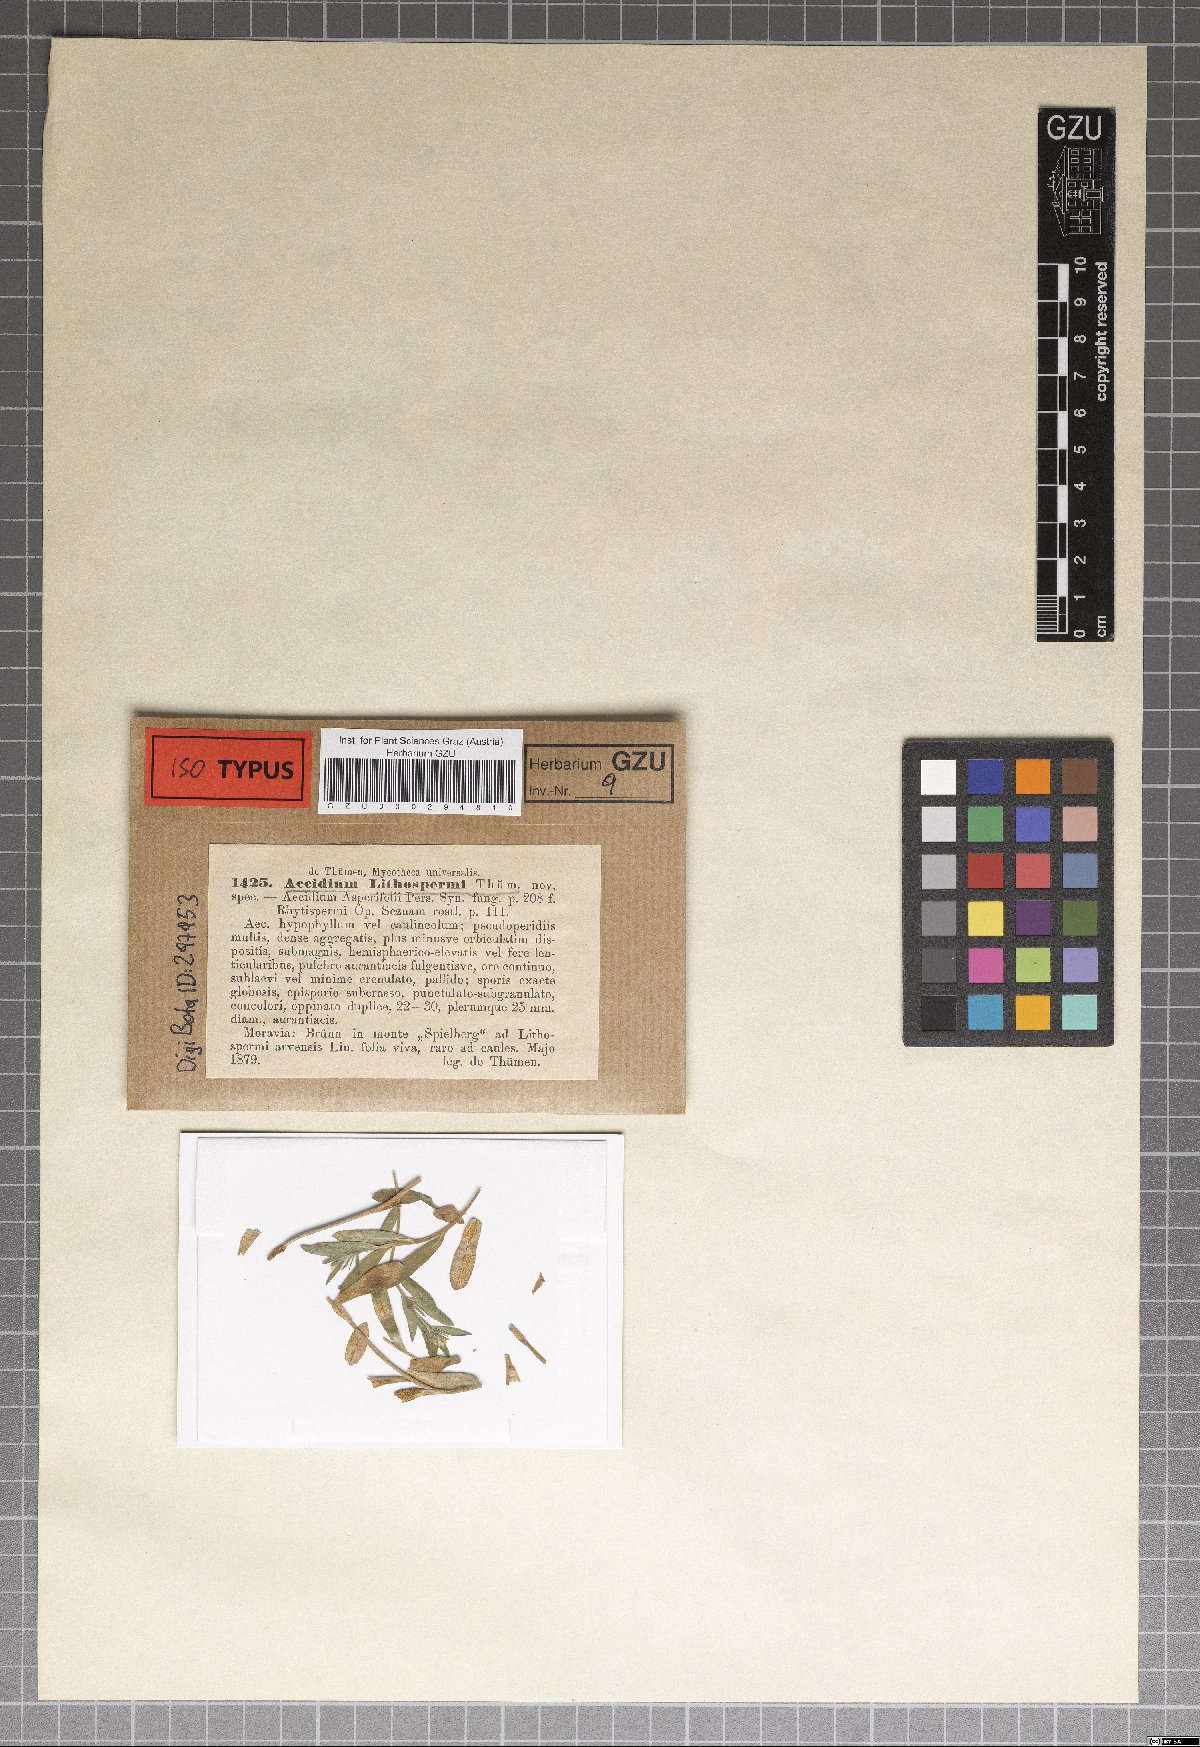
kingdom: Fungi
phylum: Basidiomycota
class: Pucciniomycetes
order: Pucciniales
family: Pucciniaceae
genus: Aecidium
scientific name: Aecidium
